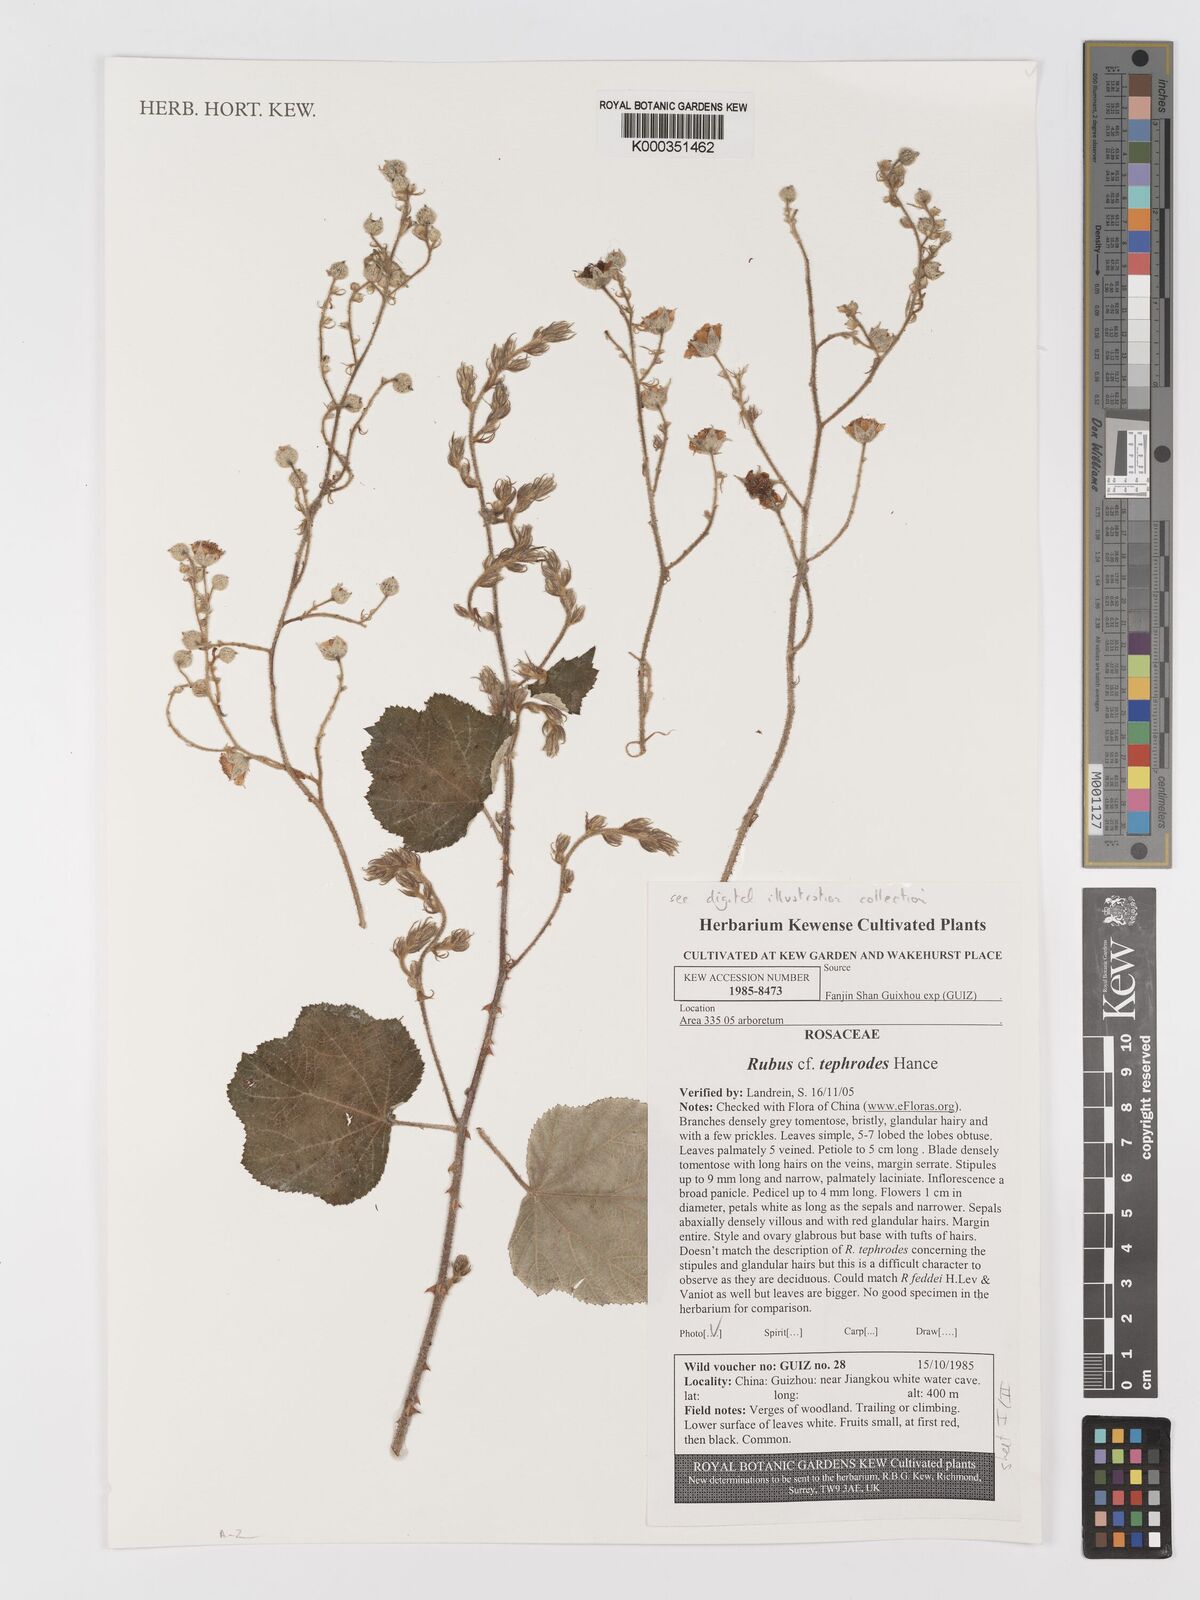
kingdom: Plantae
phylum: Tracheophyta
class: Magnoliopsida
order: Rosales
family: Rosaceae
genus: Rubus
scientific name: Rubus tephrodes
